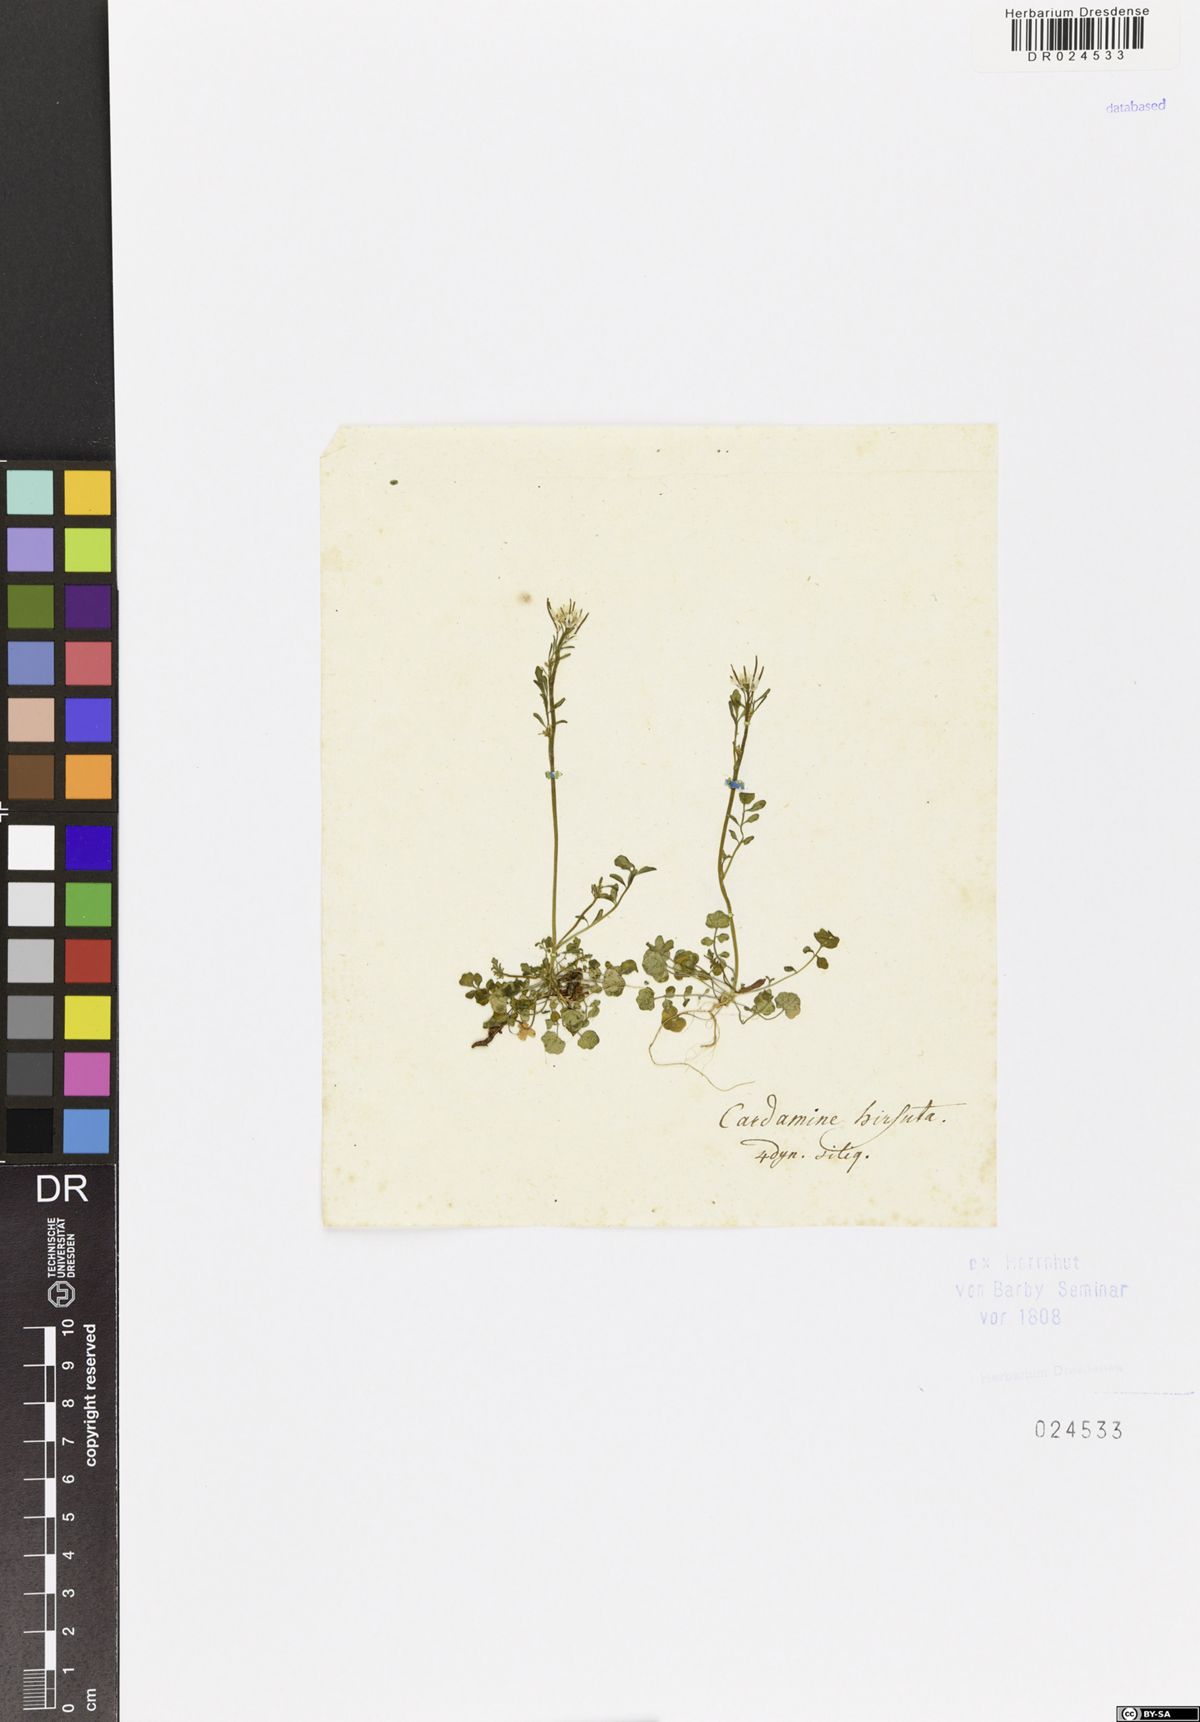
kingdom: Plantae
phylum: Tracheophyta
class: Magnoliopsida
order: Brassicales
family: Brassicaceae
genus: Cardamine
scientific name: Cardamine hirsuta
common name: Hairy bittercress
